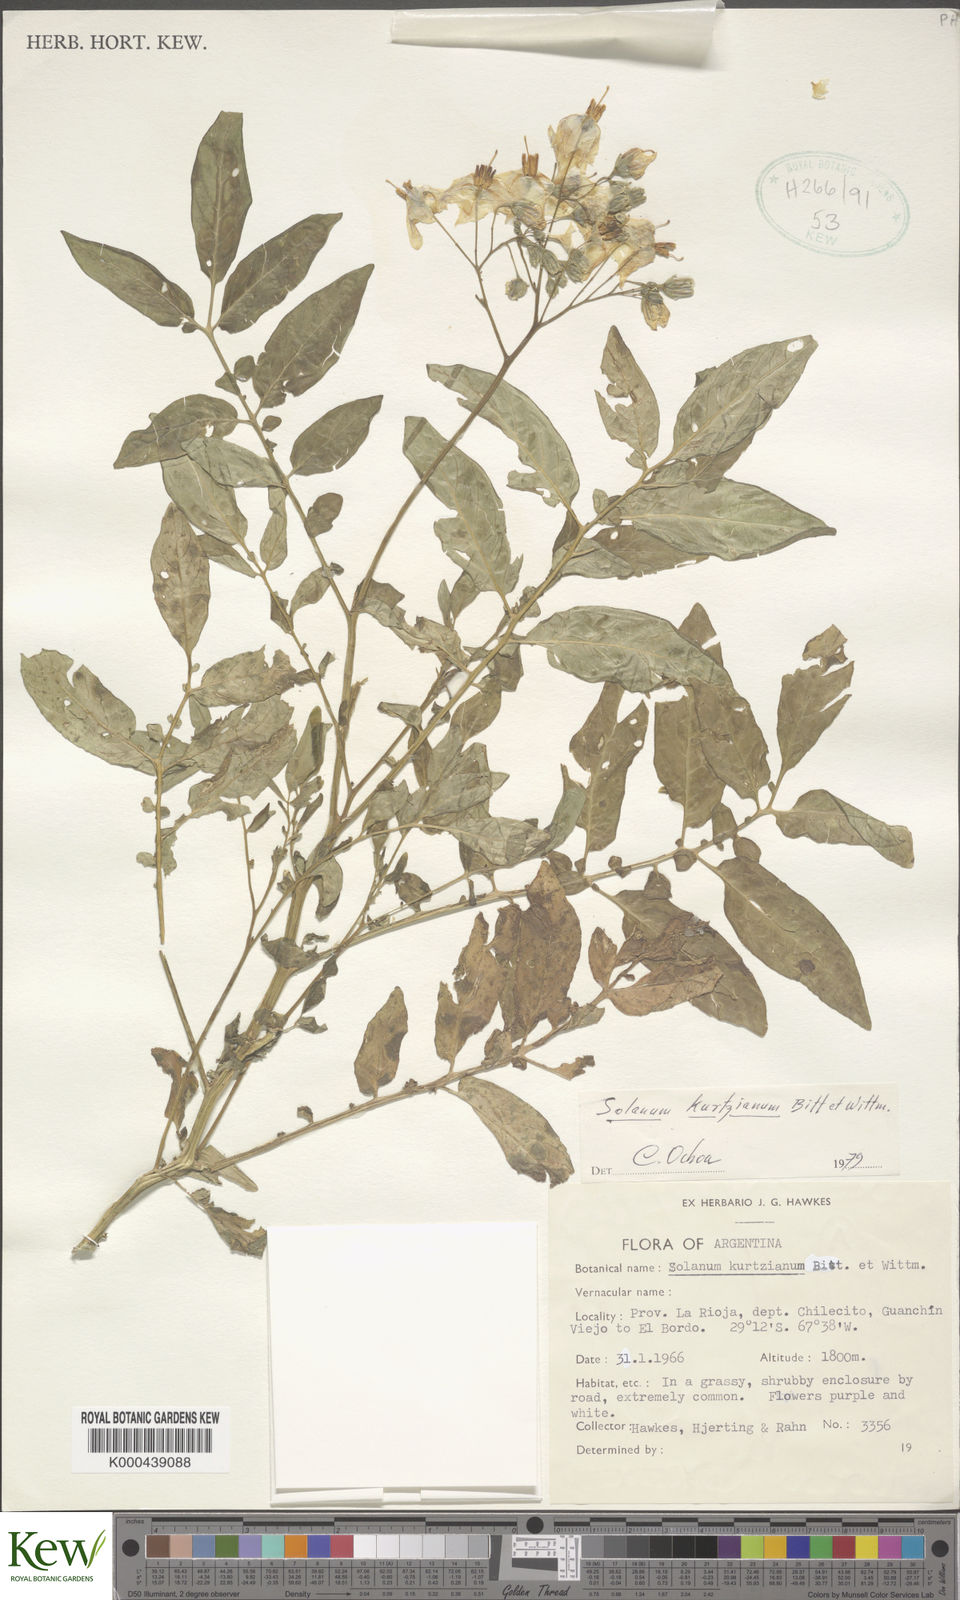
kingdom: Plantae
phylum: Tracheophyta
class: Magnoliopsida
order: Solanales
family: Solanaceae
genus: Solanum
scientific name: Solanum kurtzianum
